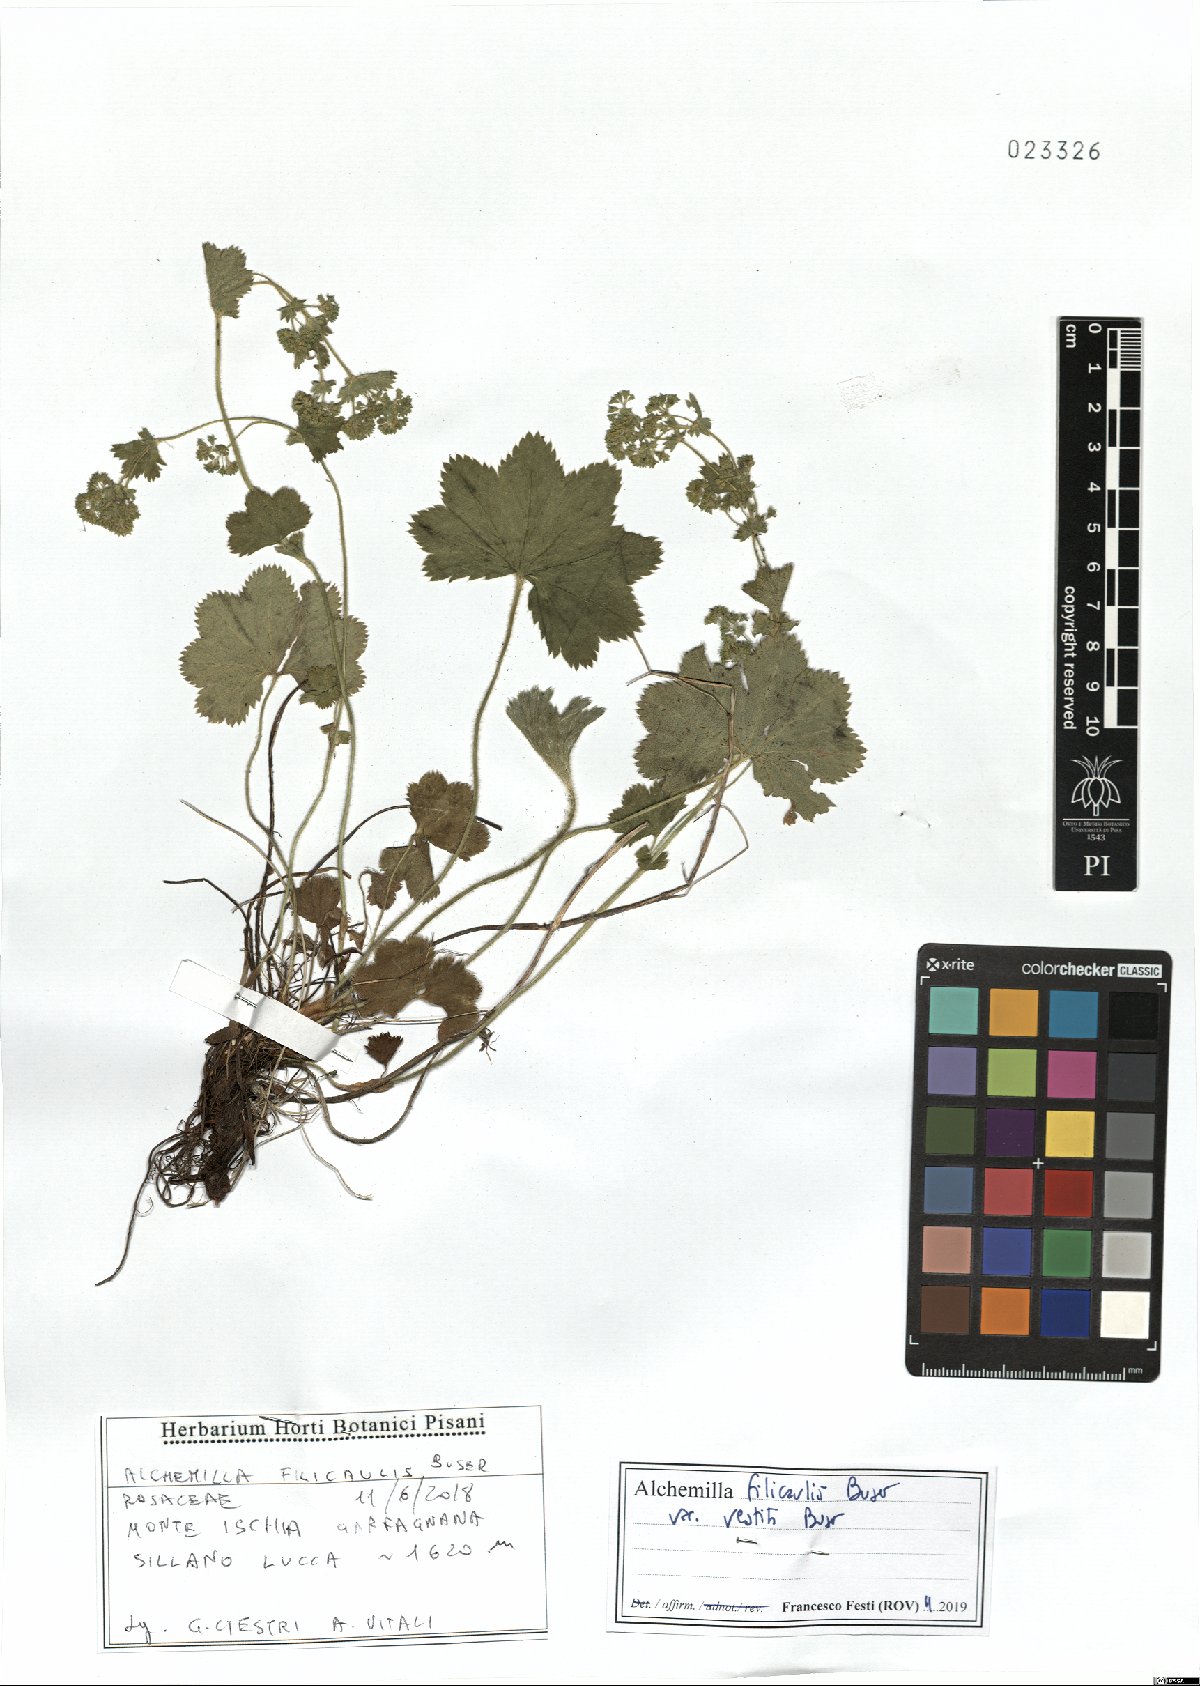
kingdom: Plantae
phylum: Tracheophyta
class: Magnoliopsida
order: Rosales
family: Rosaceae
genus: Alchemilla
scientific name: Alchemilla filicaulis
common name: Hairy lady's-mantle
